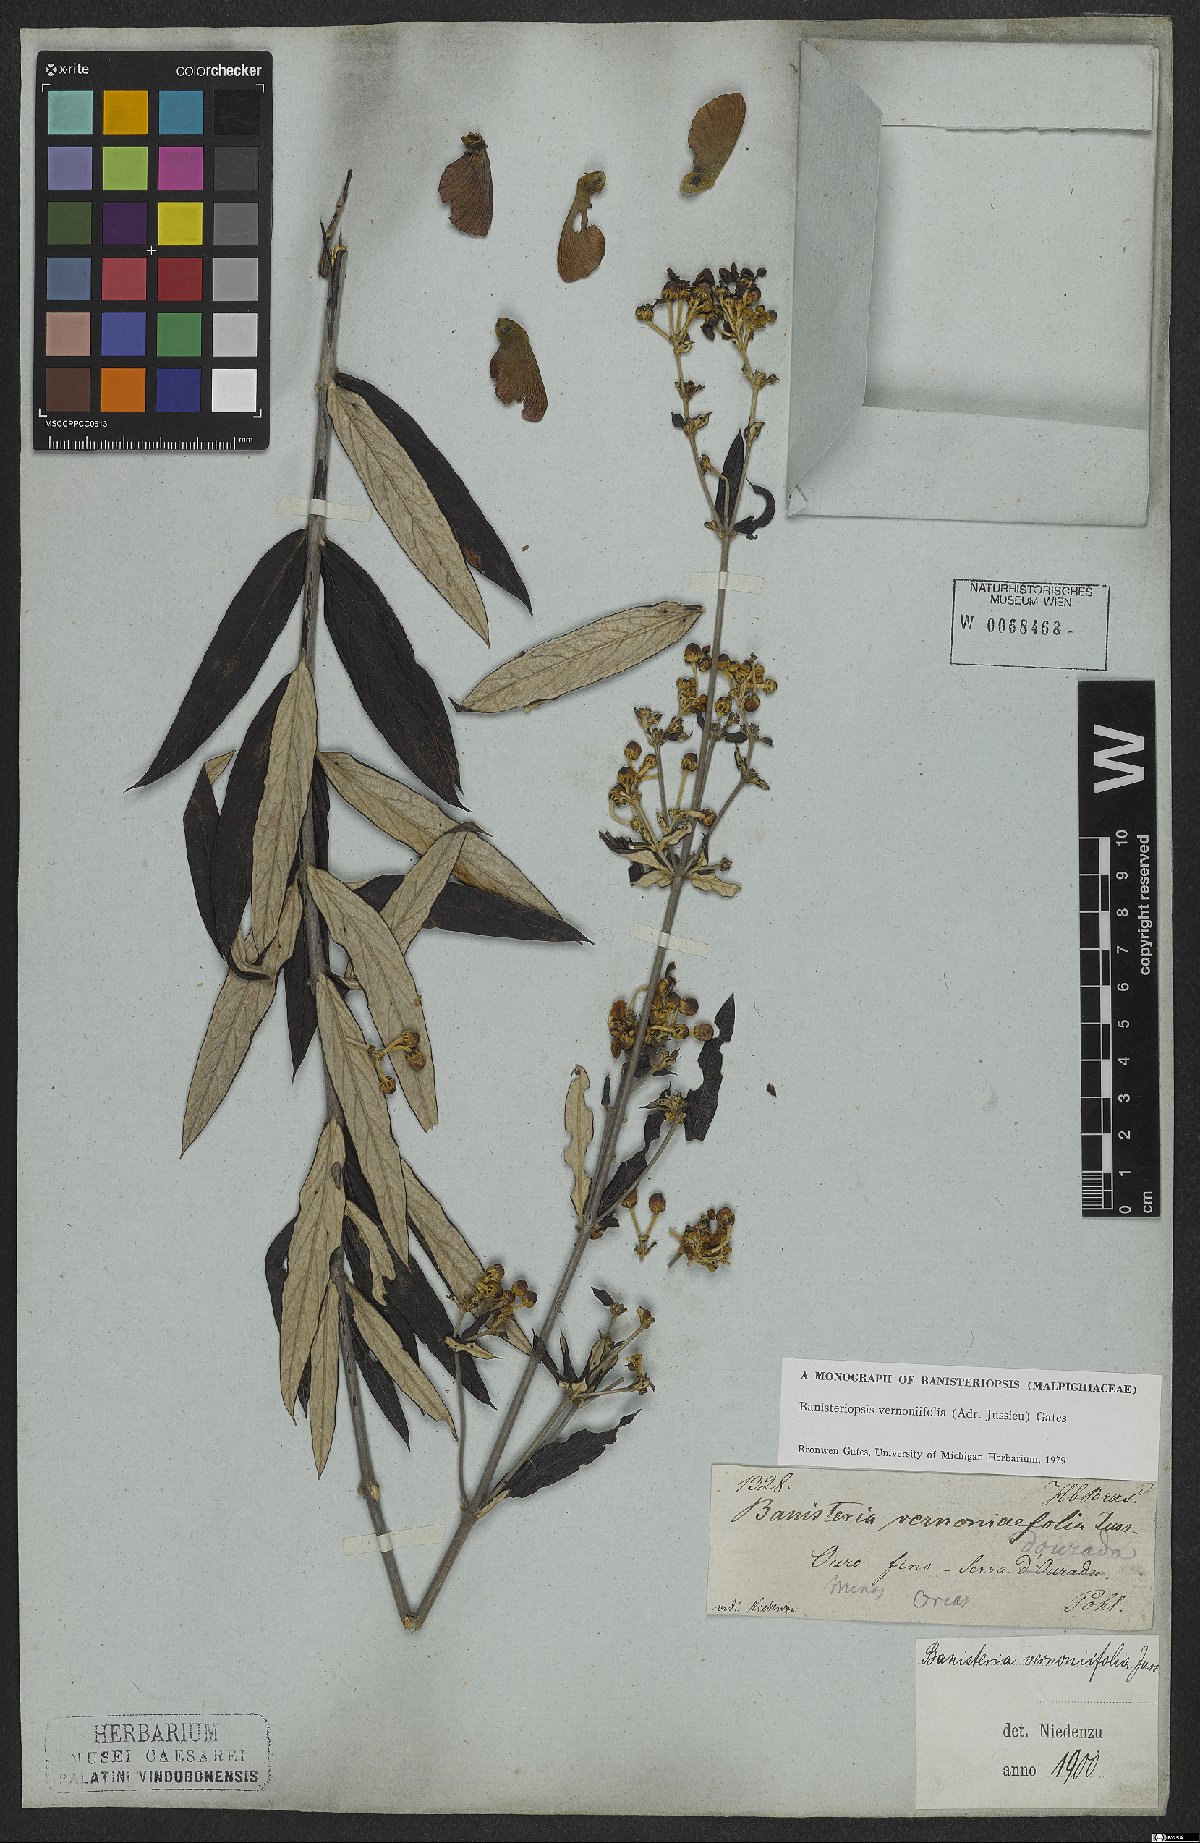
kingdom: Plantae
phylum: Tracheophyta
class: Magnoliopsida
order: Malpighiales
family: Malpighiaceae
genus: Banisteriopsis
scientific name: Banisteriopsis vernoniifolia
